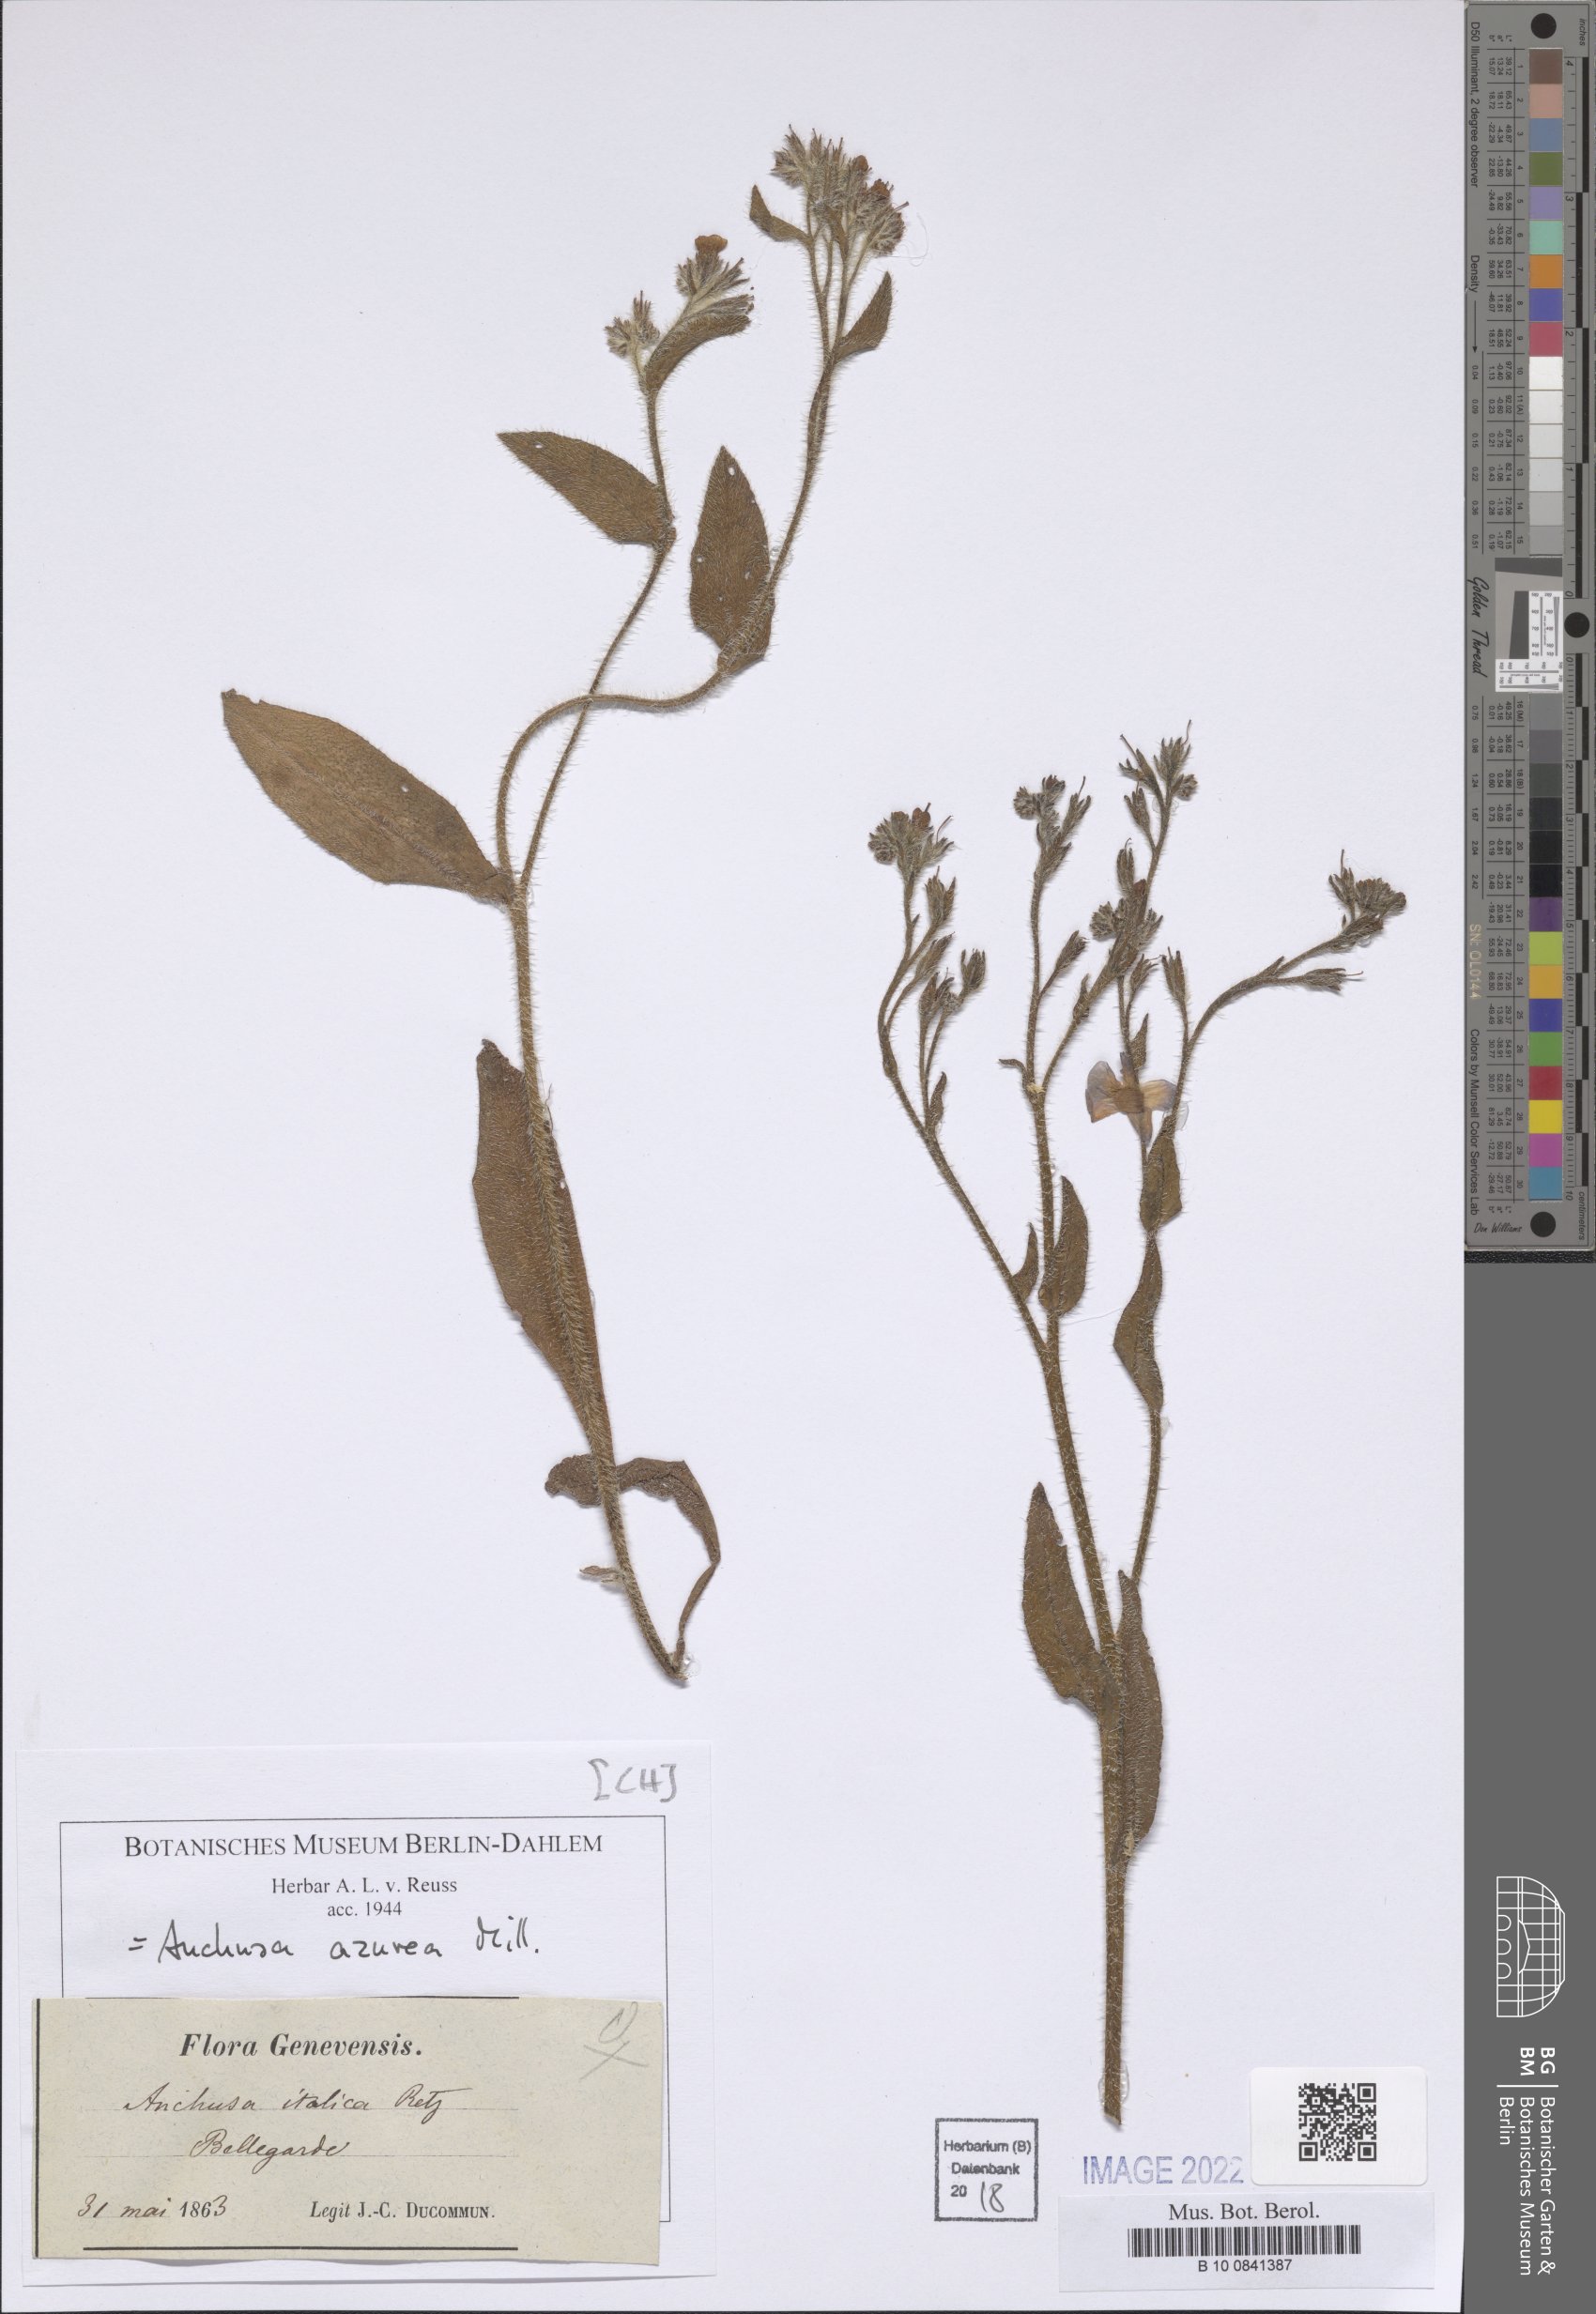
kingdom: Plantae
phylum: Tracheophyta
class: Magnoliopsida
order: Boraginales
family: Boraginaceae
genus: Anchusa
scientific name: Anchusa azurea
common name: Garden anchusa
